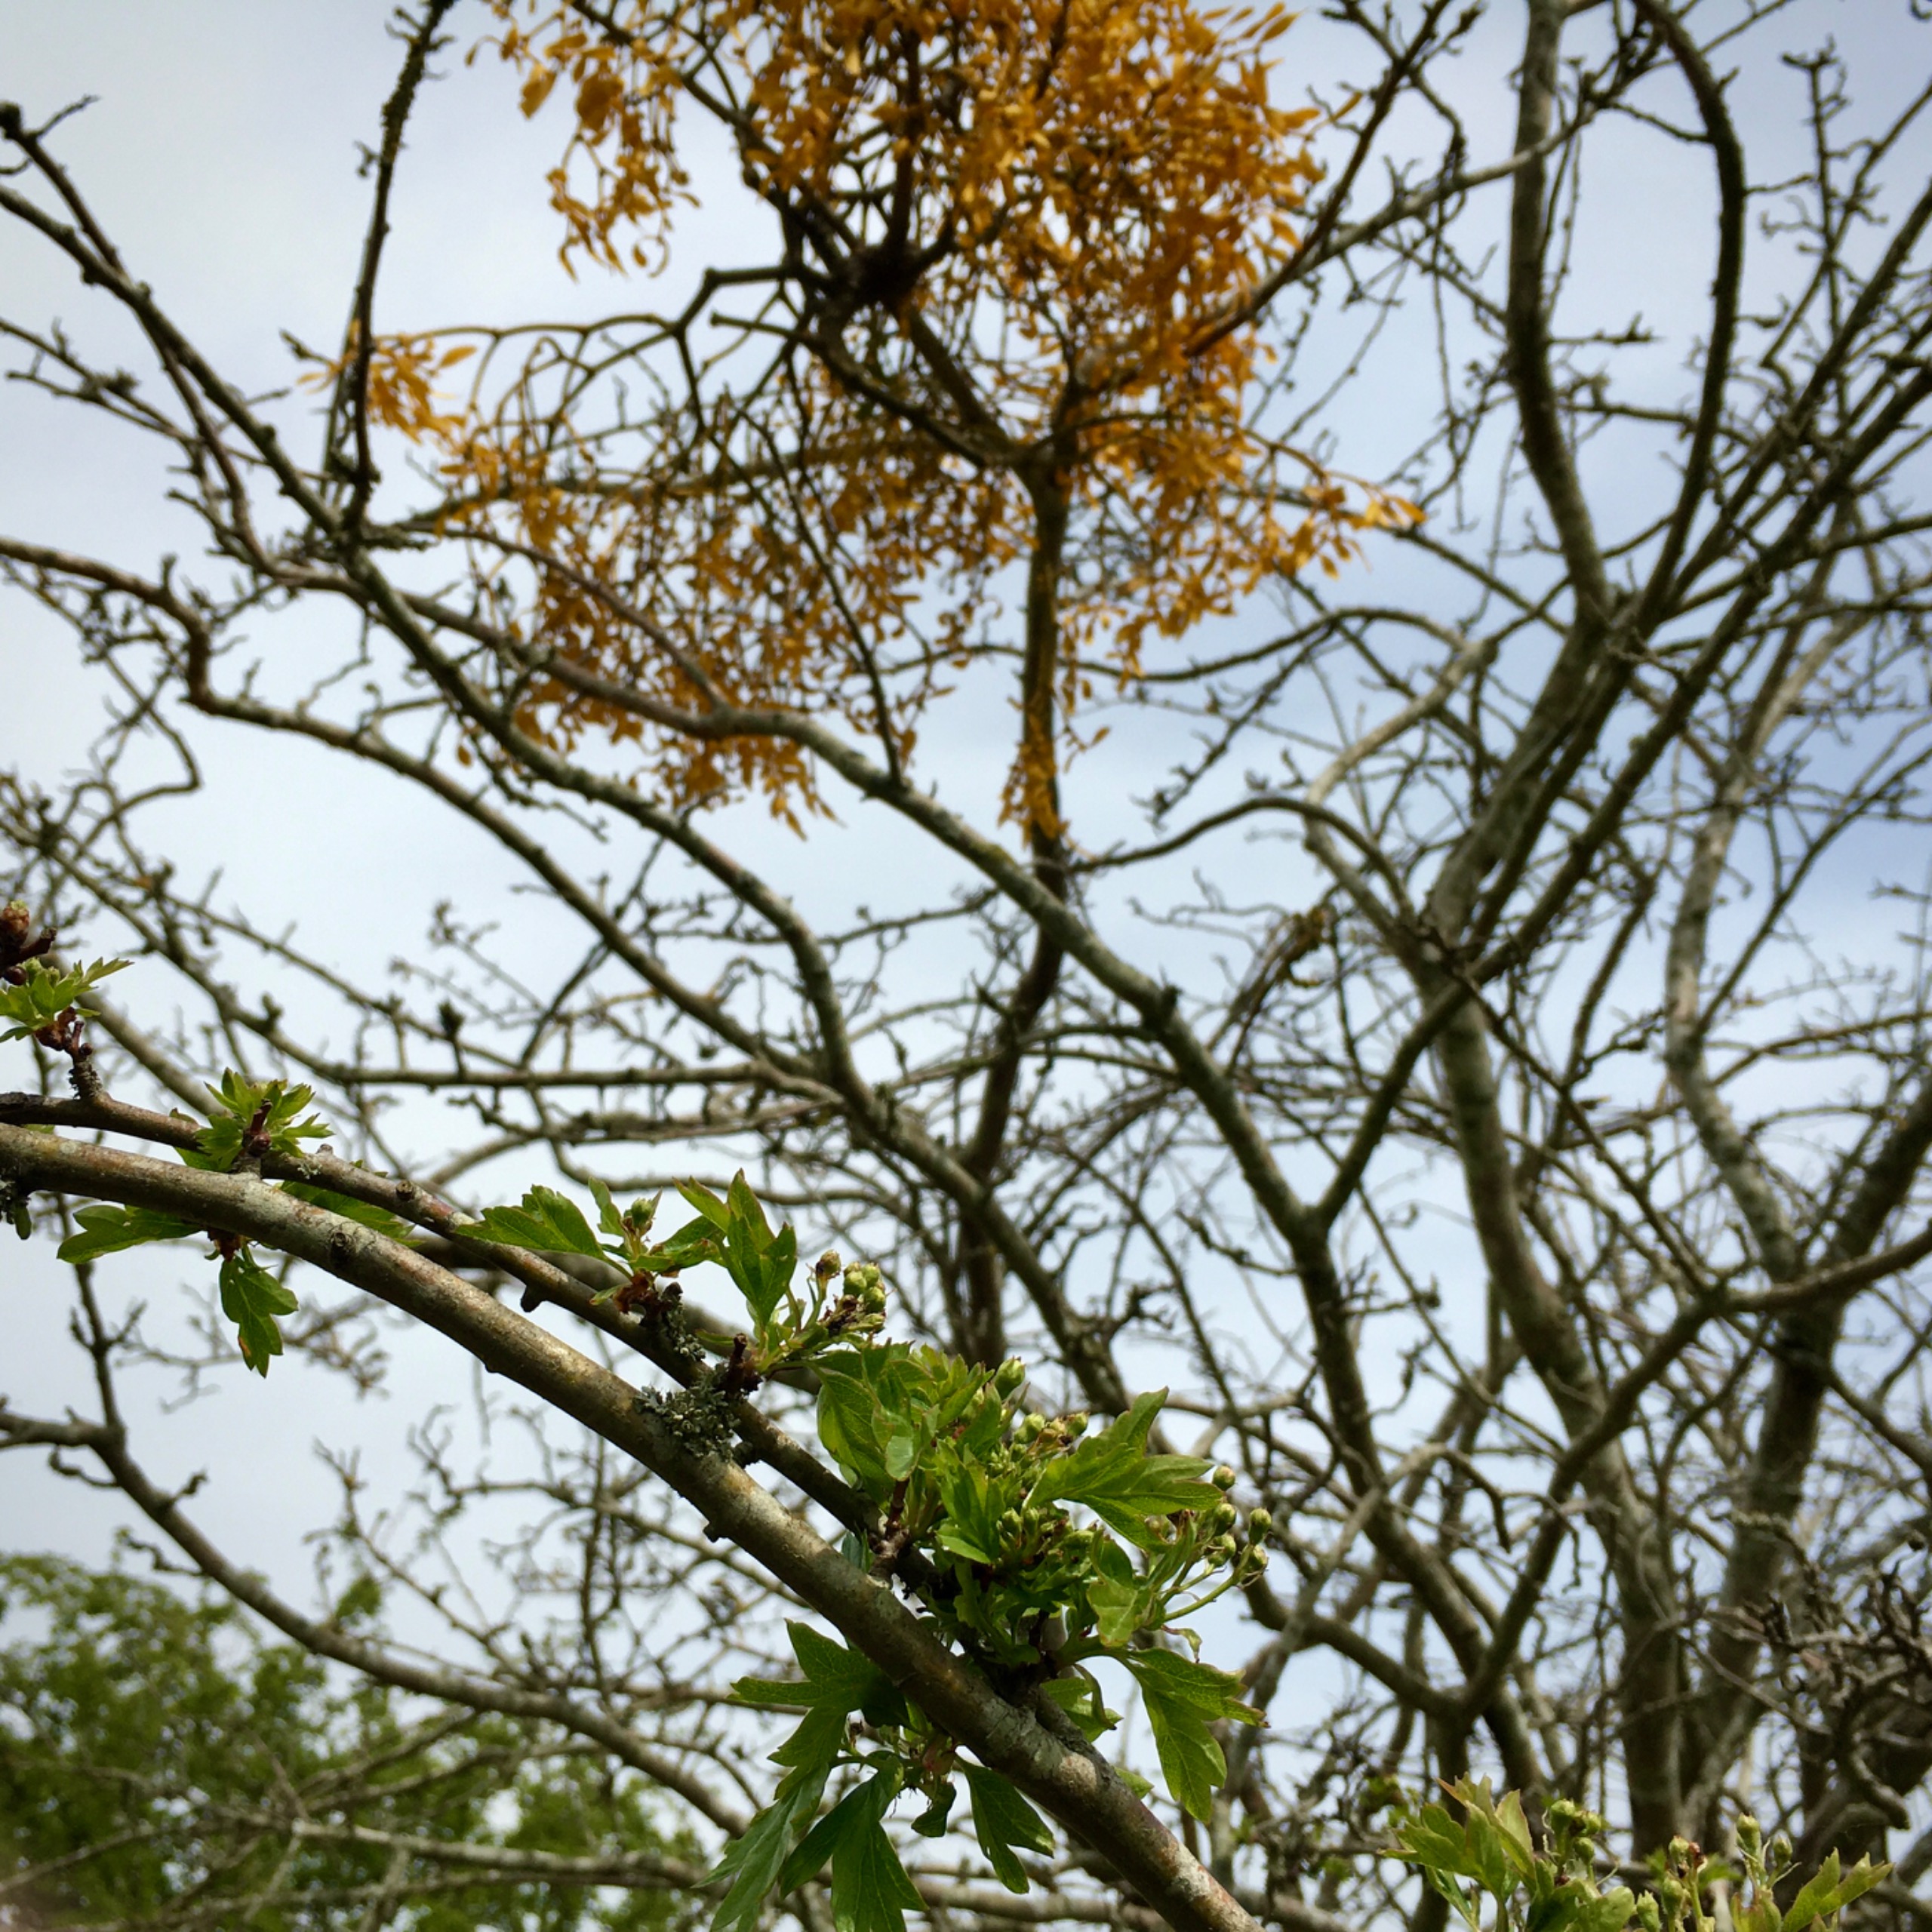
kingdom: Plantae
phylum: Tracheophyta
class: Magnoliopsida
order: Santalales
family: Viscaceae
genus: Viscum
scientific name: Viscum album
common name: Mistelten
